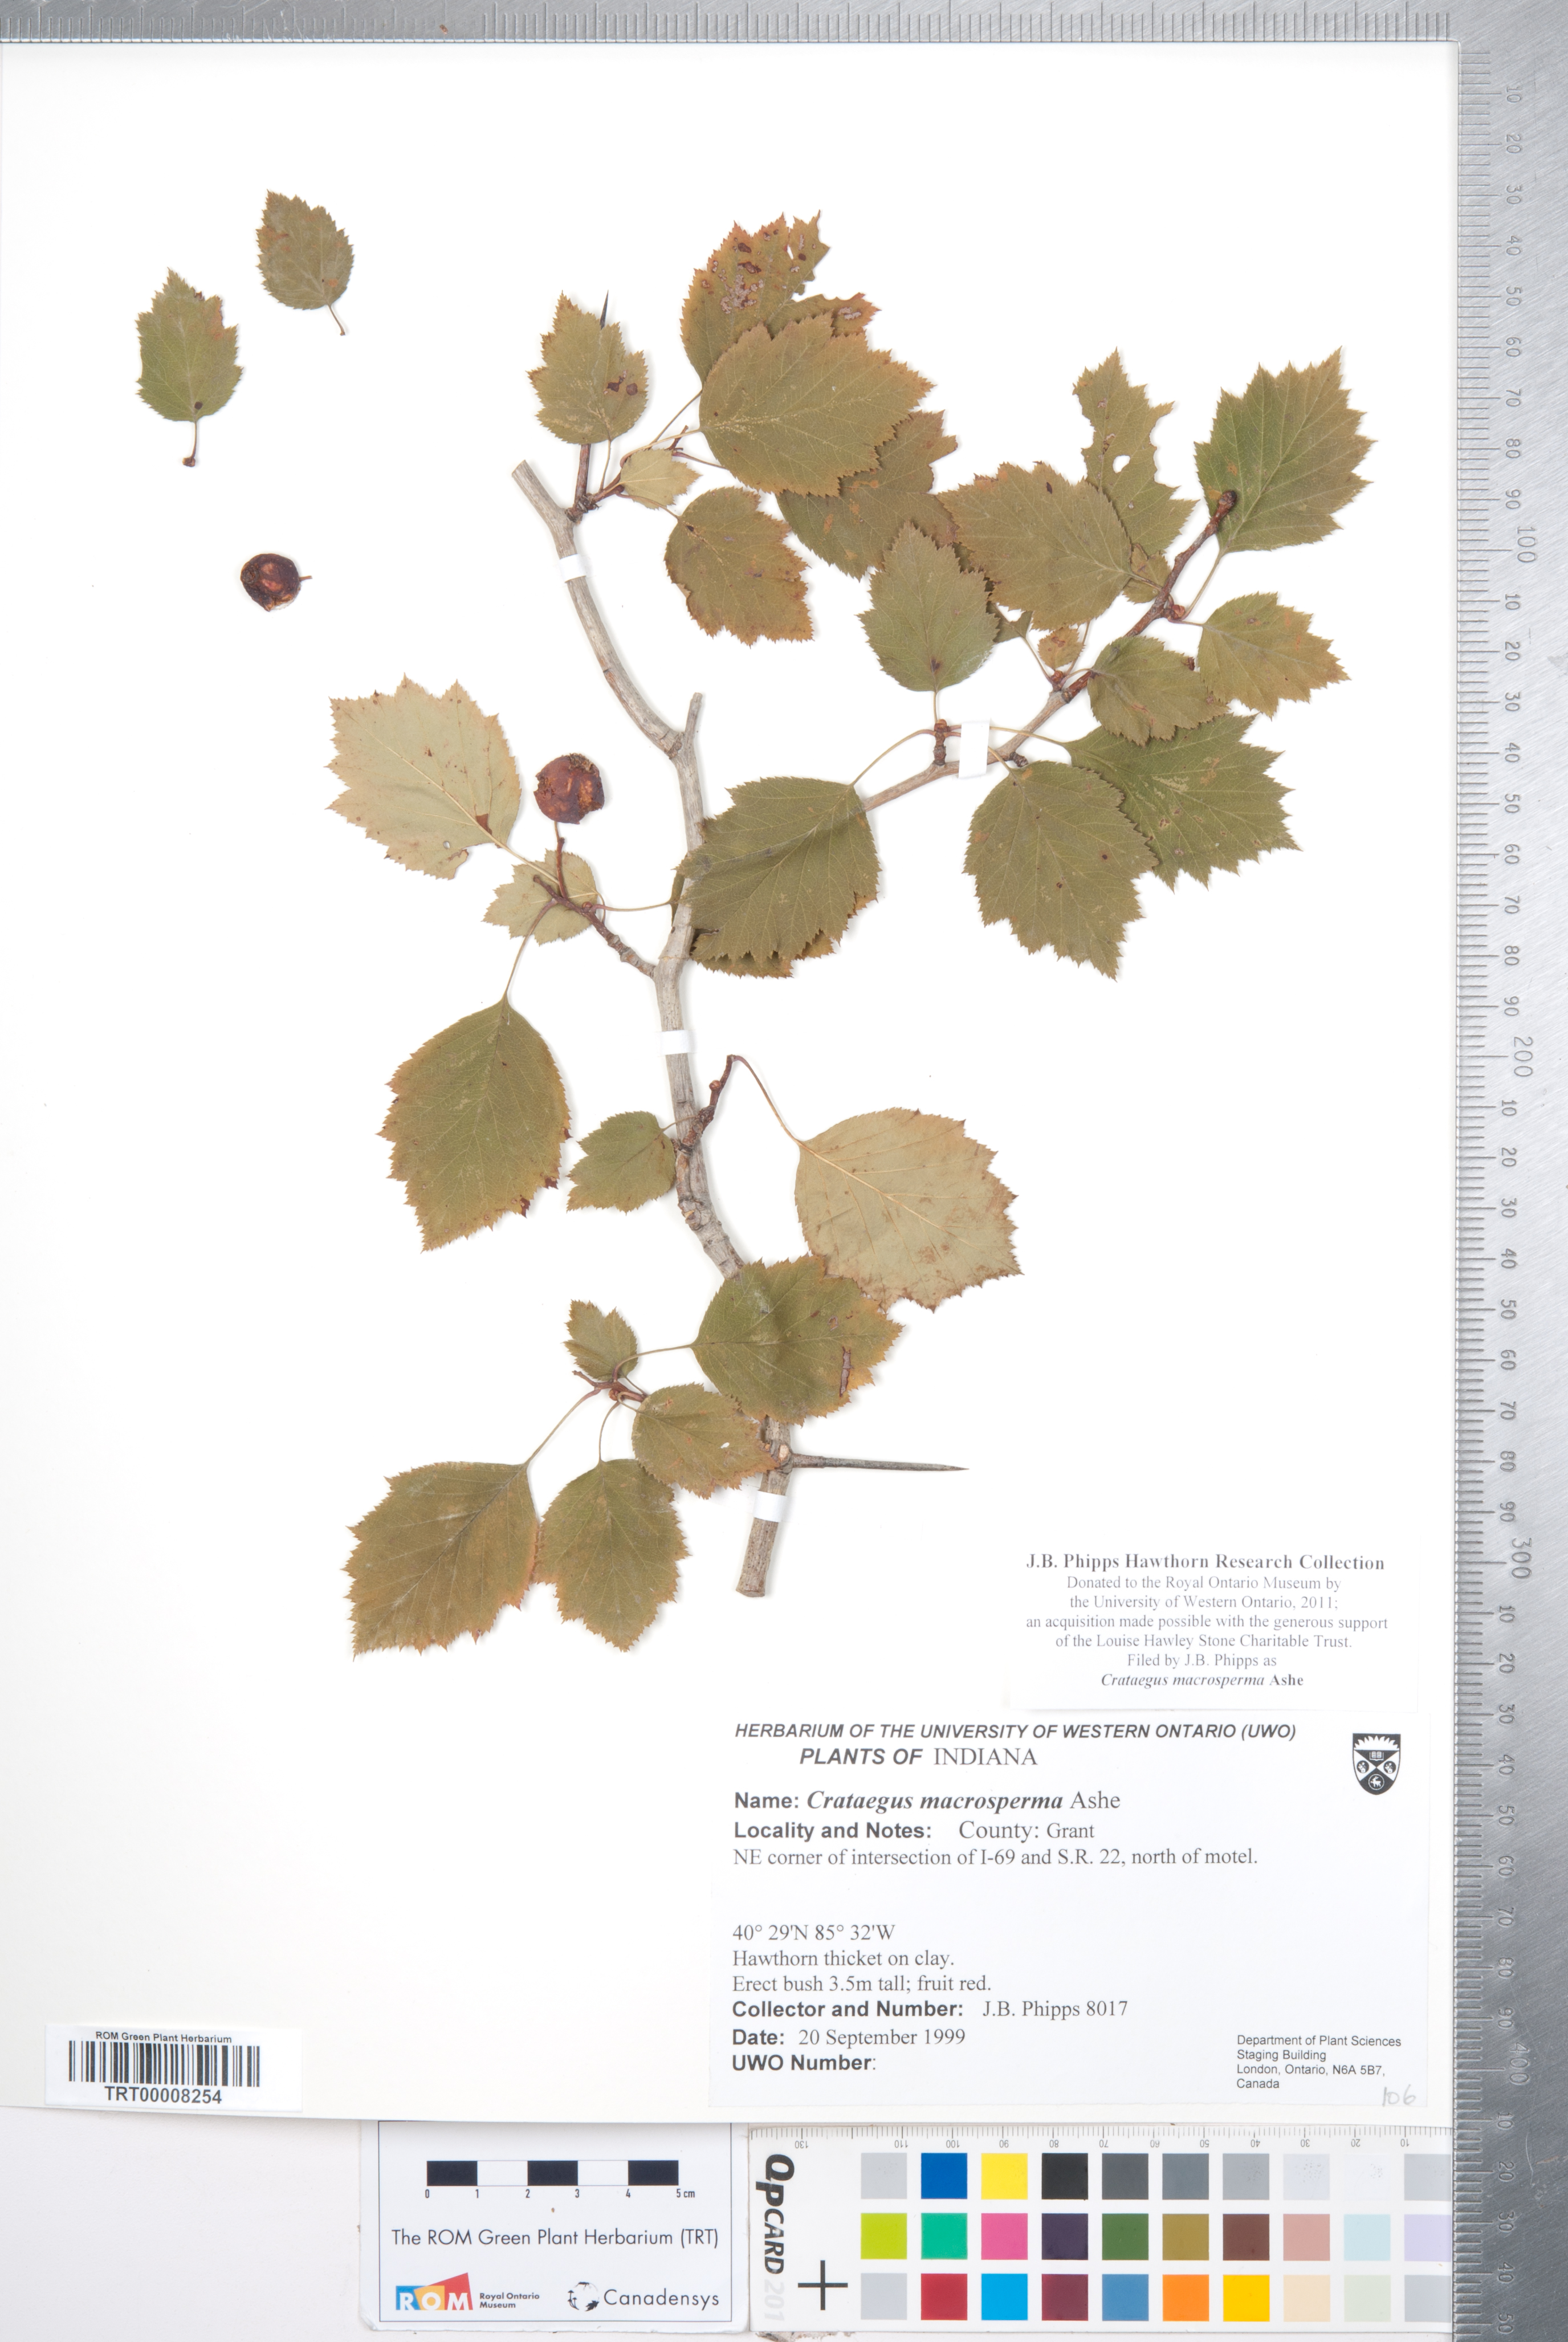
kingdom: Plantae
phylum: Tracheophyta
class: Magnoliopsida
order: Rosales
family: Rosaceae
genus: Crataegus
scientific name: Crataegus macrosperma
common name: Variable hawthorn
